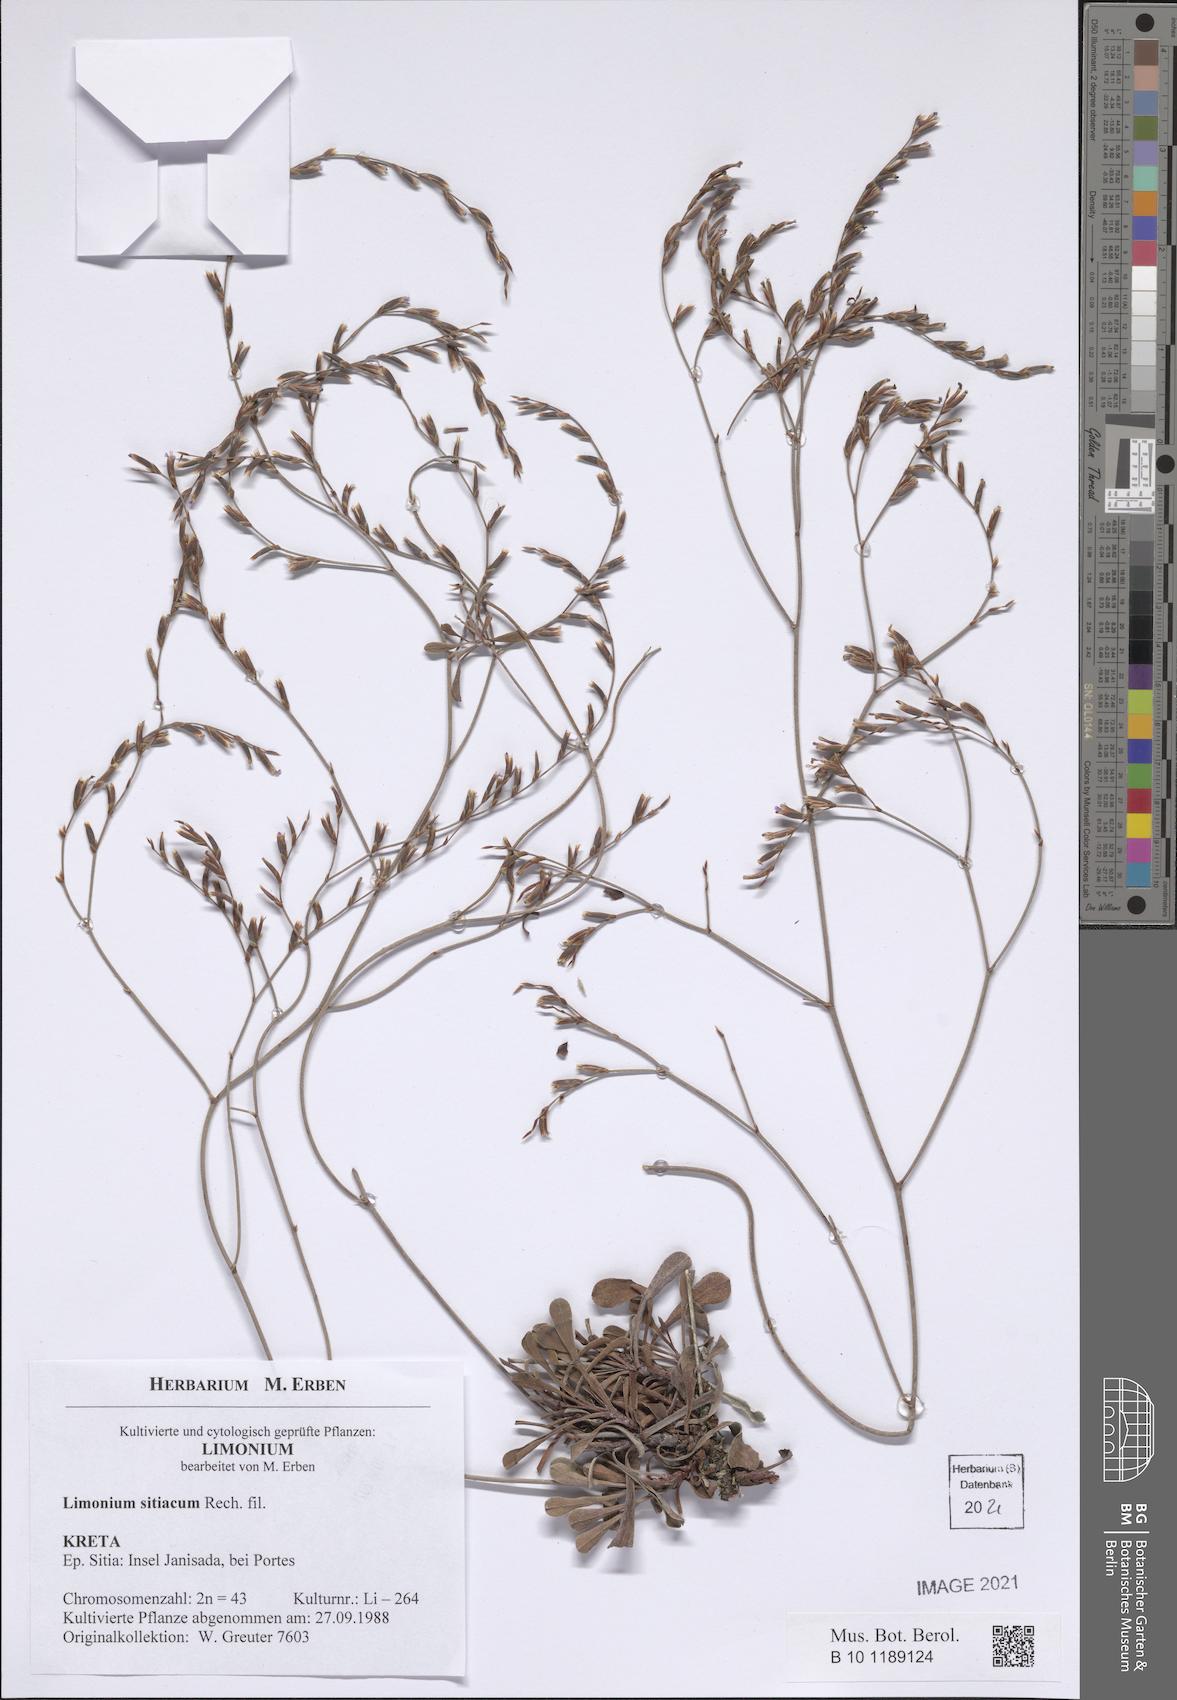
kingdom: Plantae
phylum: Tracheophyta
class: Magnoliopsida
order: Caryophyllales
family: Plumbaginaceae
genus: Limonium
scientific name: Limonium sitiacum
